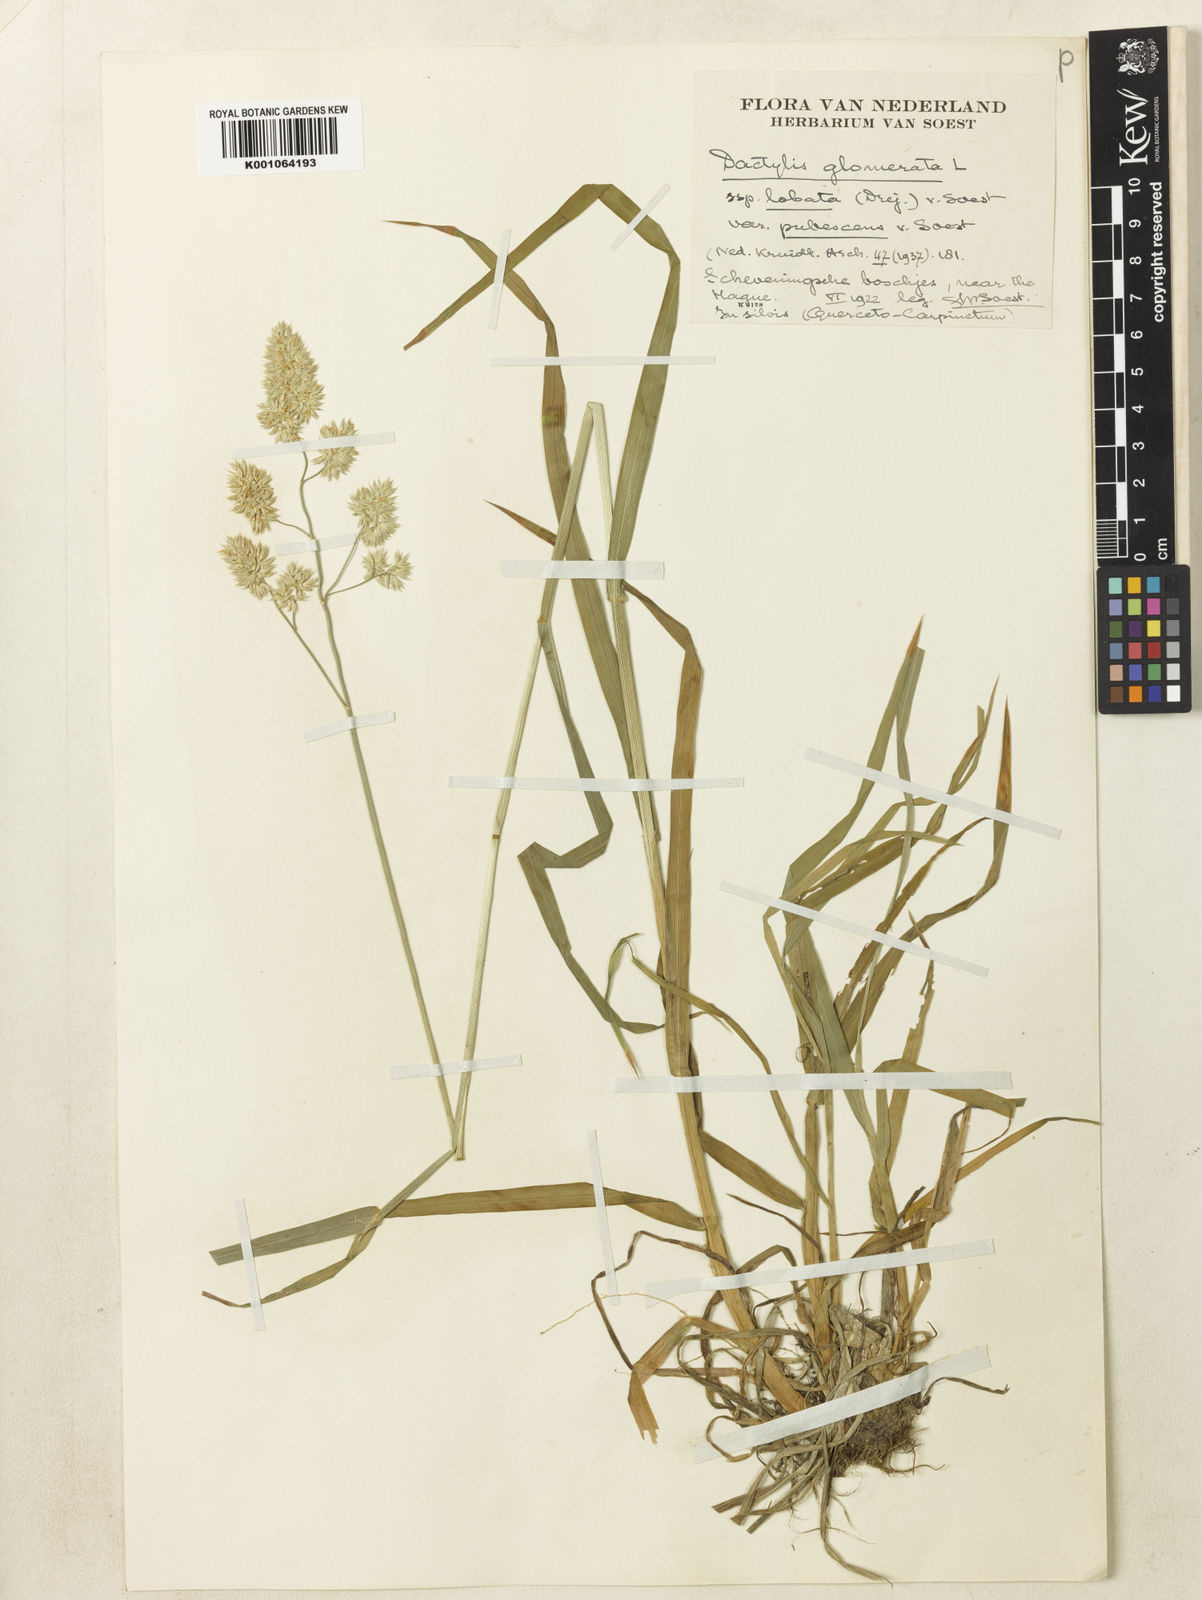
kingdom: Plantae
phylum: Tracheophyta
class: Liliopsida
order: Poales
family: Poaceae
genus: Dactylis
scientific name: Dactylis glomerata
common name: Orchardgrass
